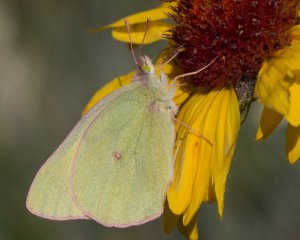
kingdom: Animalia
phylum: Arthropoda
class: Insecta
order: Lepidoptera
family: Pieridae
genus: Colias
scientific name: Colias interior
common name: Pink-edged Sulphur
